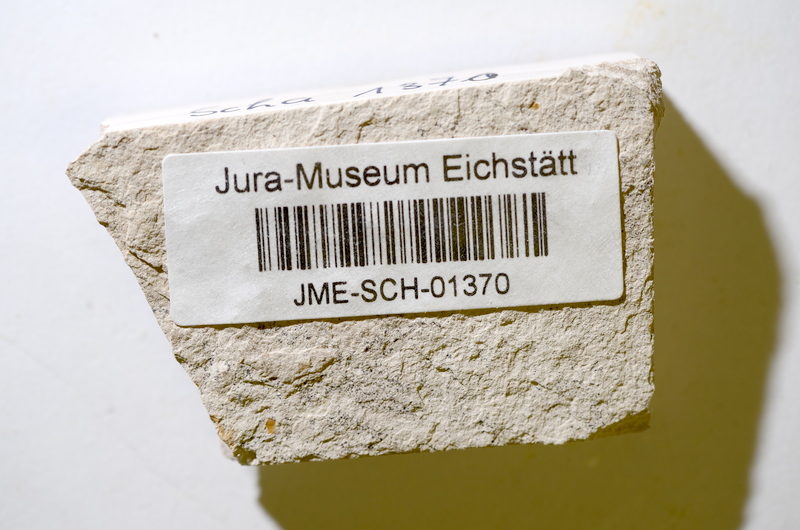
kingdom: Animalia
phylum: Chordata
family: Ascalaboidae
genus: Tharsis
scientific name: Tharsis dubius
